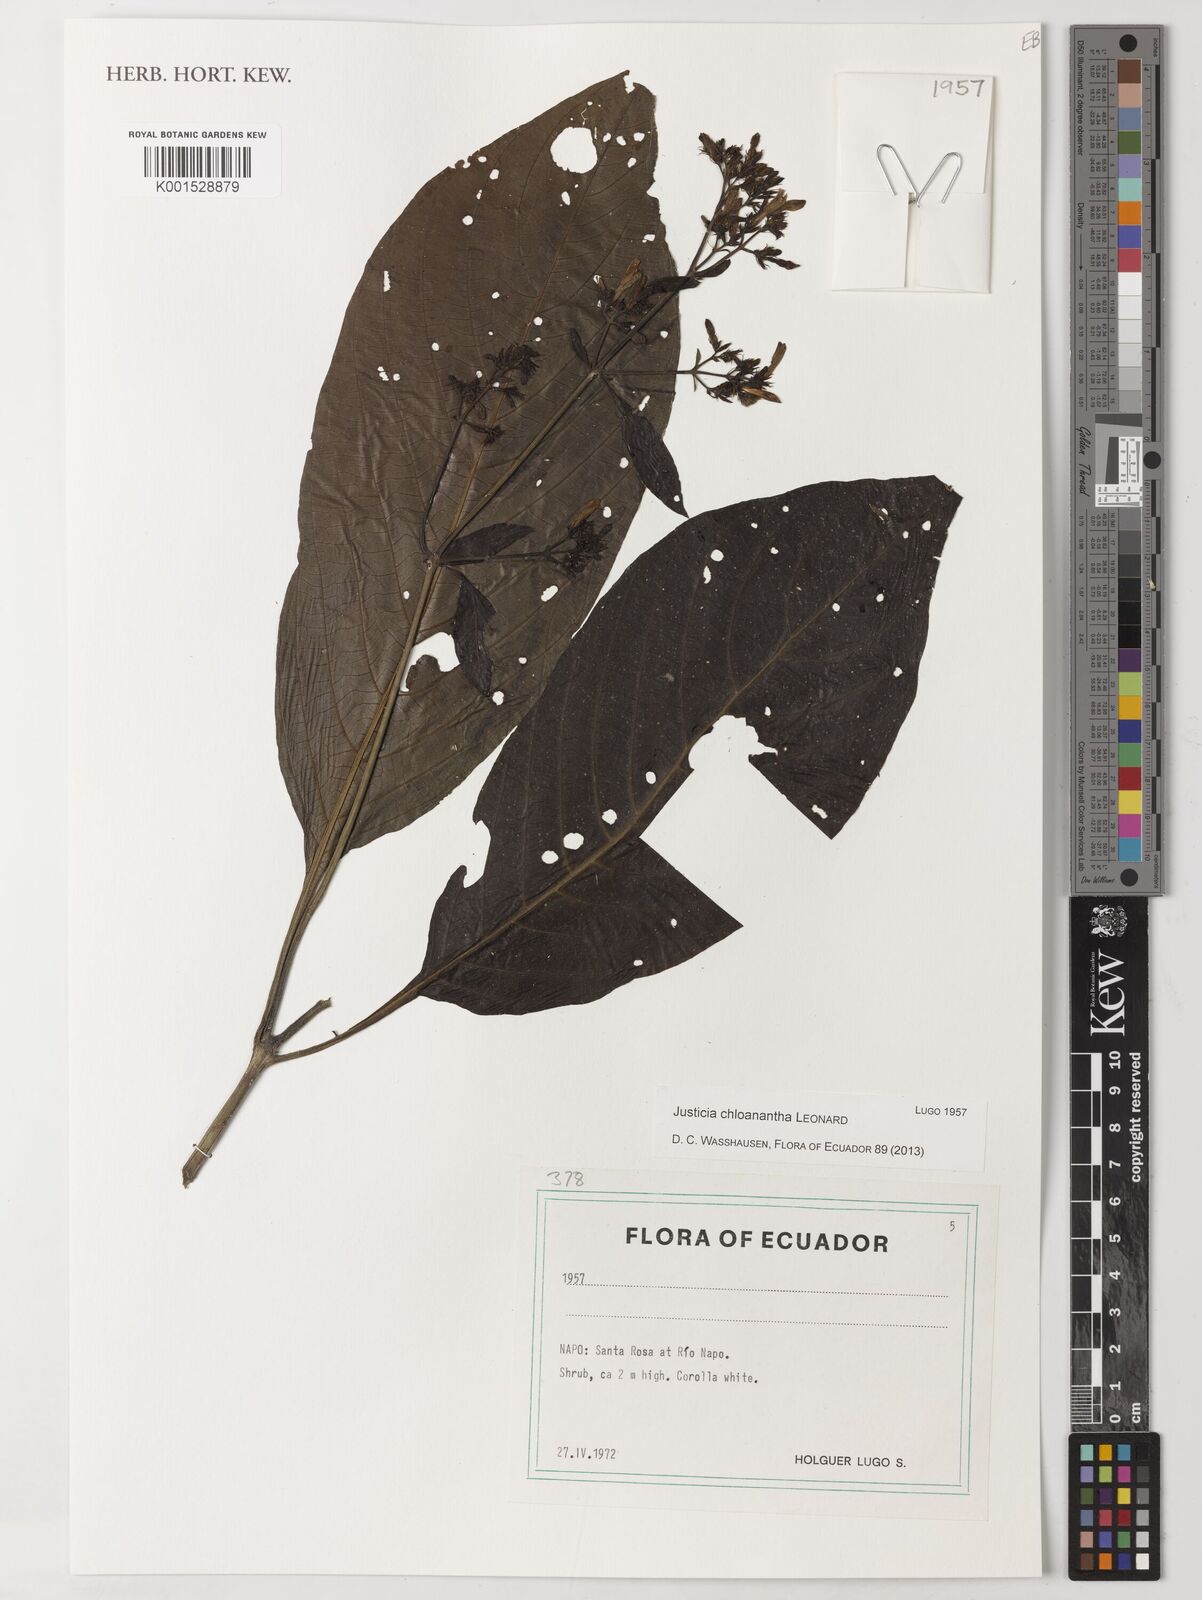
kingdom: Plantae
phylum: Tracheophyta
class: Magnoliopsida
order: Lamiales
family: Acanthaceae
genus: Justicia
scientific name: Justicia chloanantha
